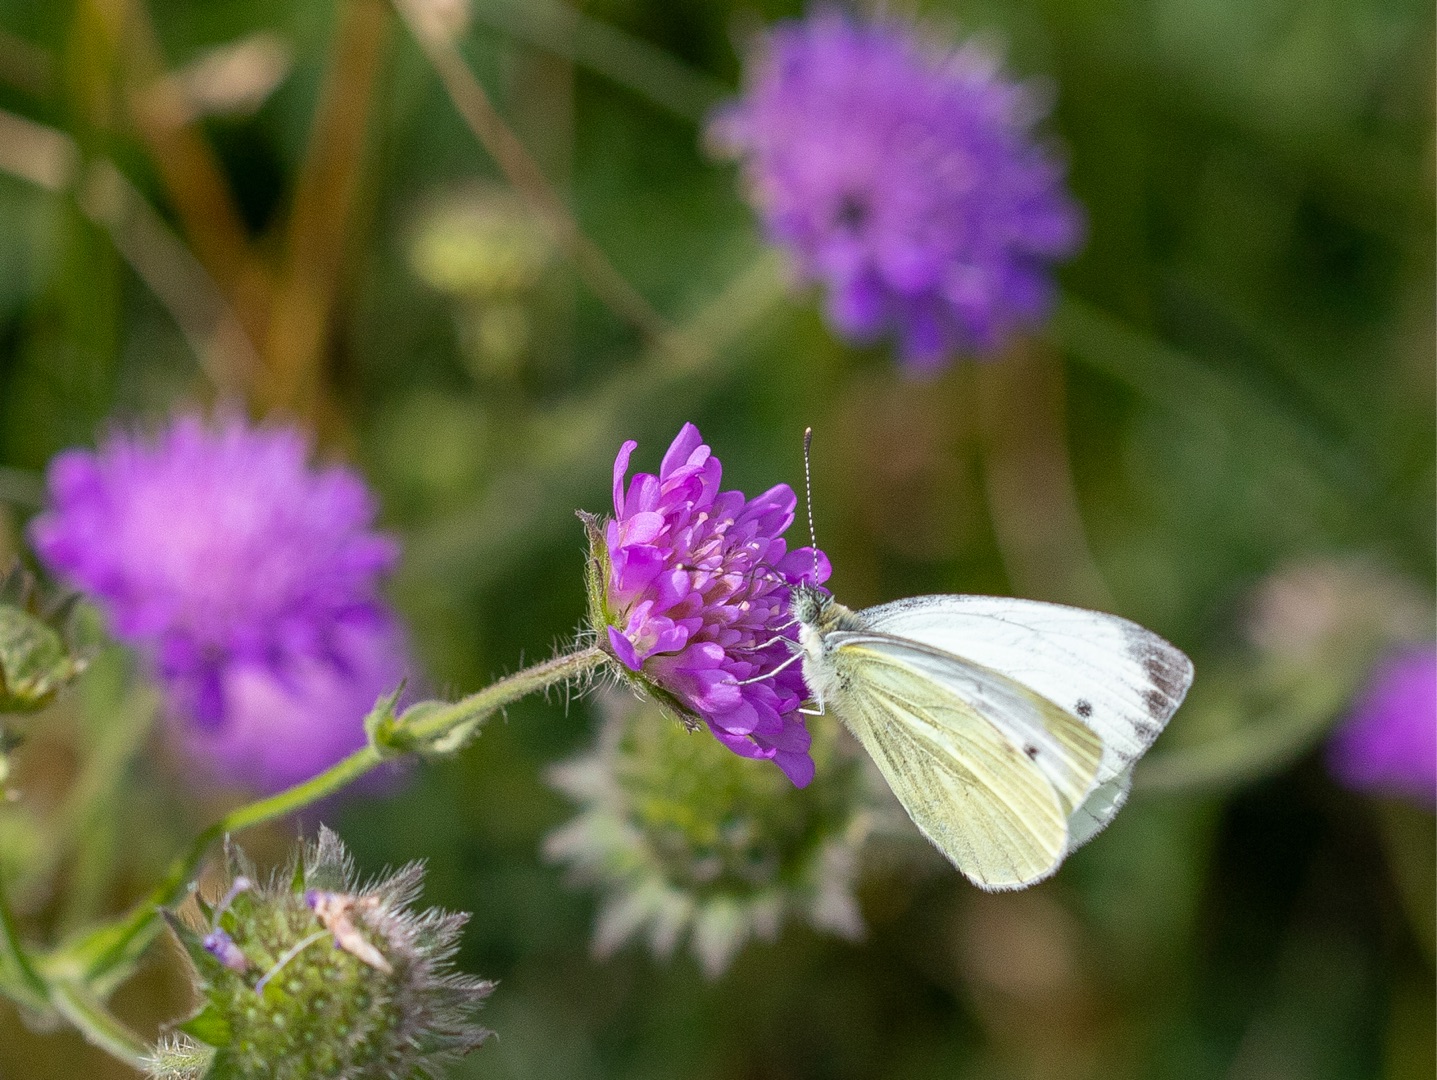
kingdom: Animalia
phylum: Arthropoda
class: Insecta
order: Lepidoptera
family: Pieridae
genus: Pieris
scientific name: Pieris napi
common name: Grønåret kålsommerfugl
